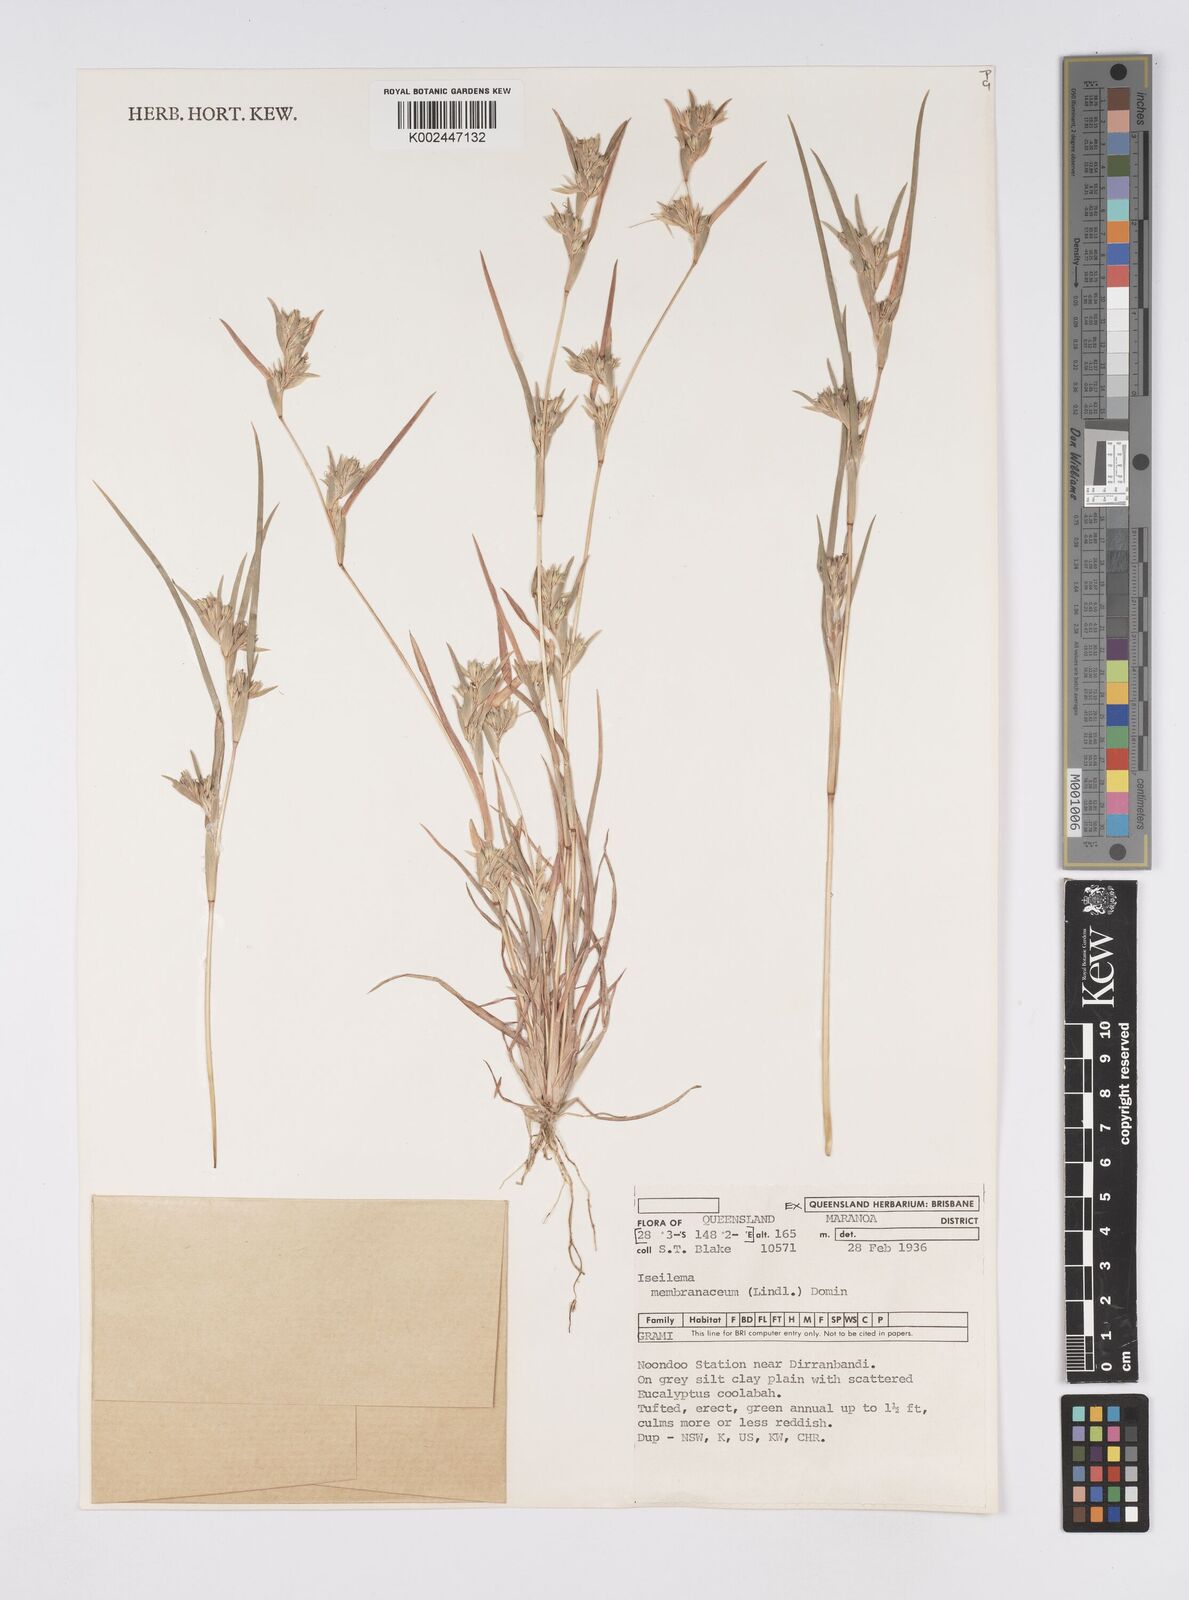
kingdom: Plantae
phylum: Tracheophyta
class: Liliopsida
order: Poales
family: Poaceae
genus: Iseilema
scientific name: Iseilema membranaceum
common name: Small flinders grass
